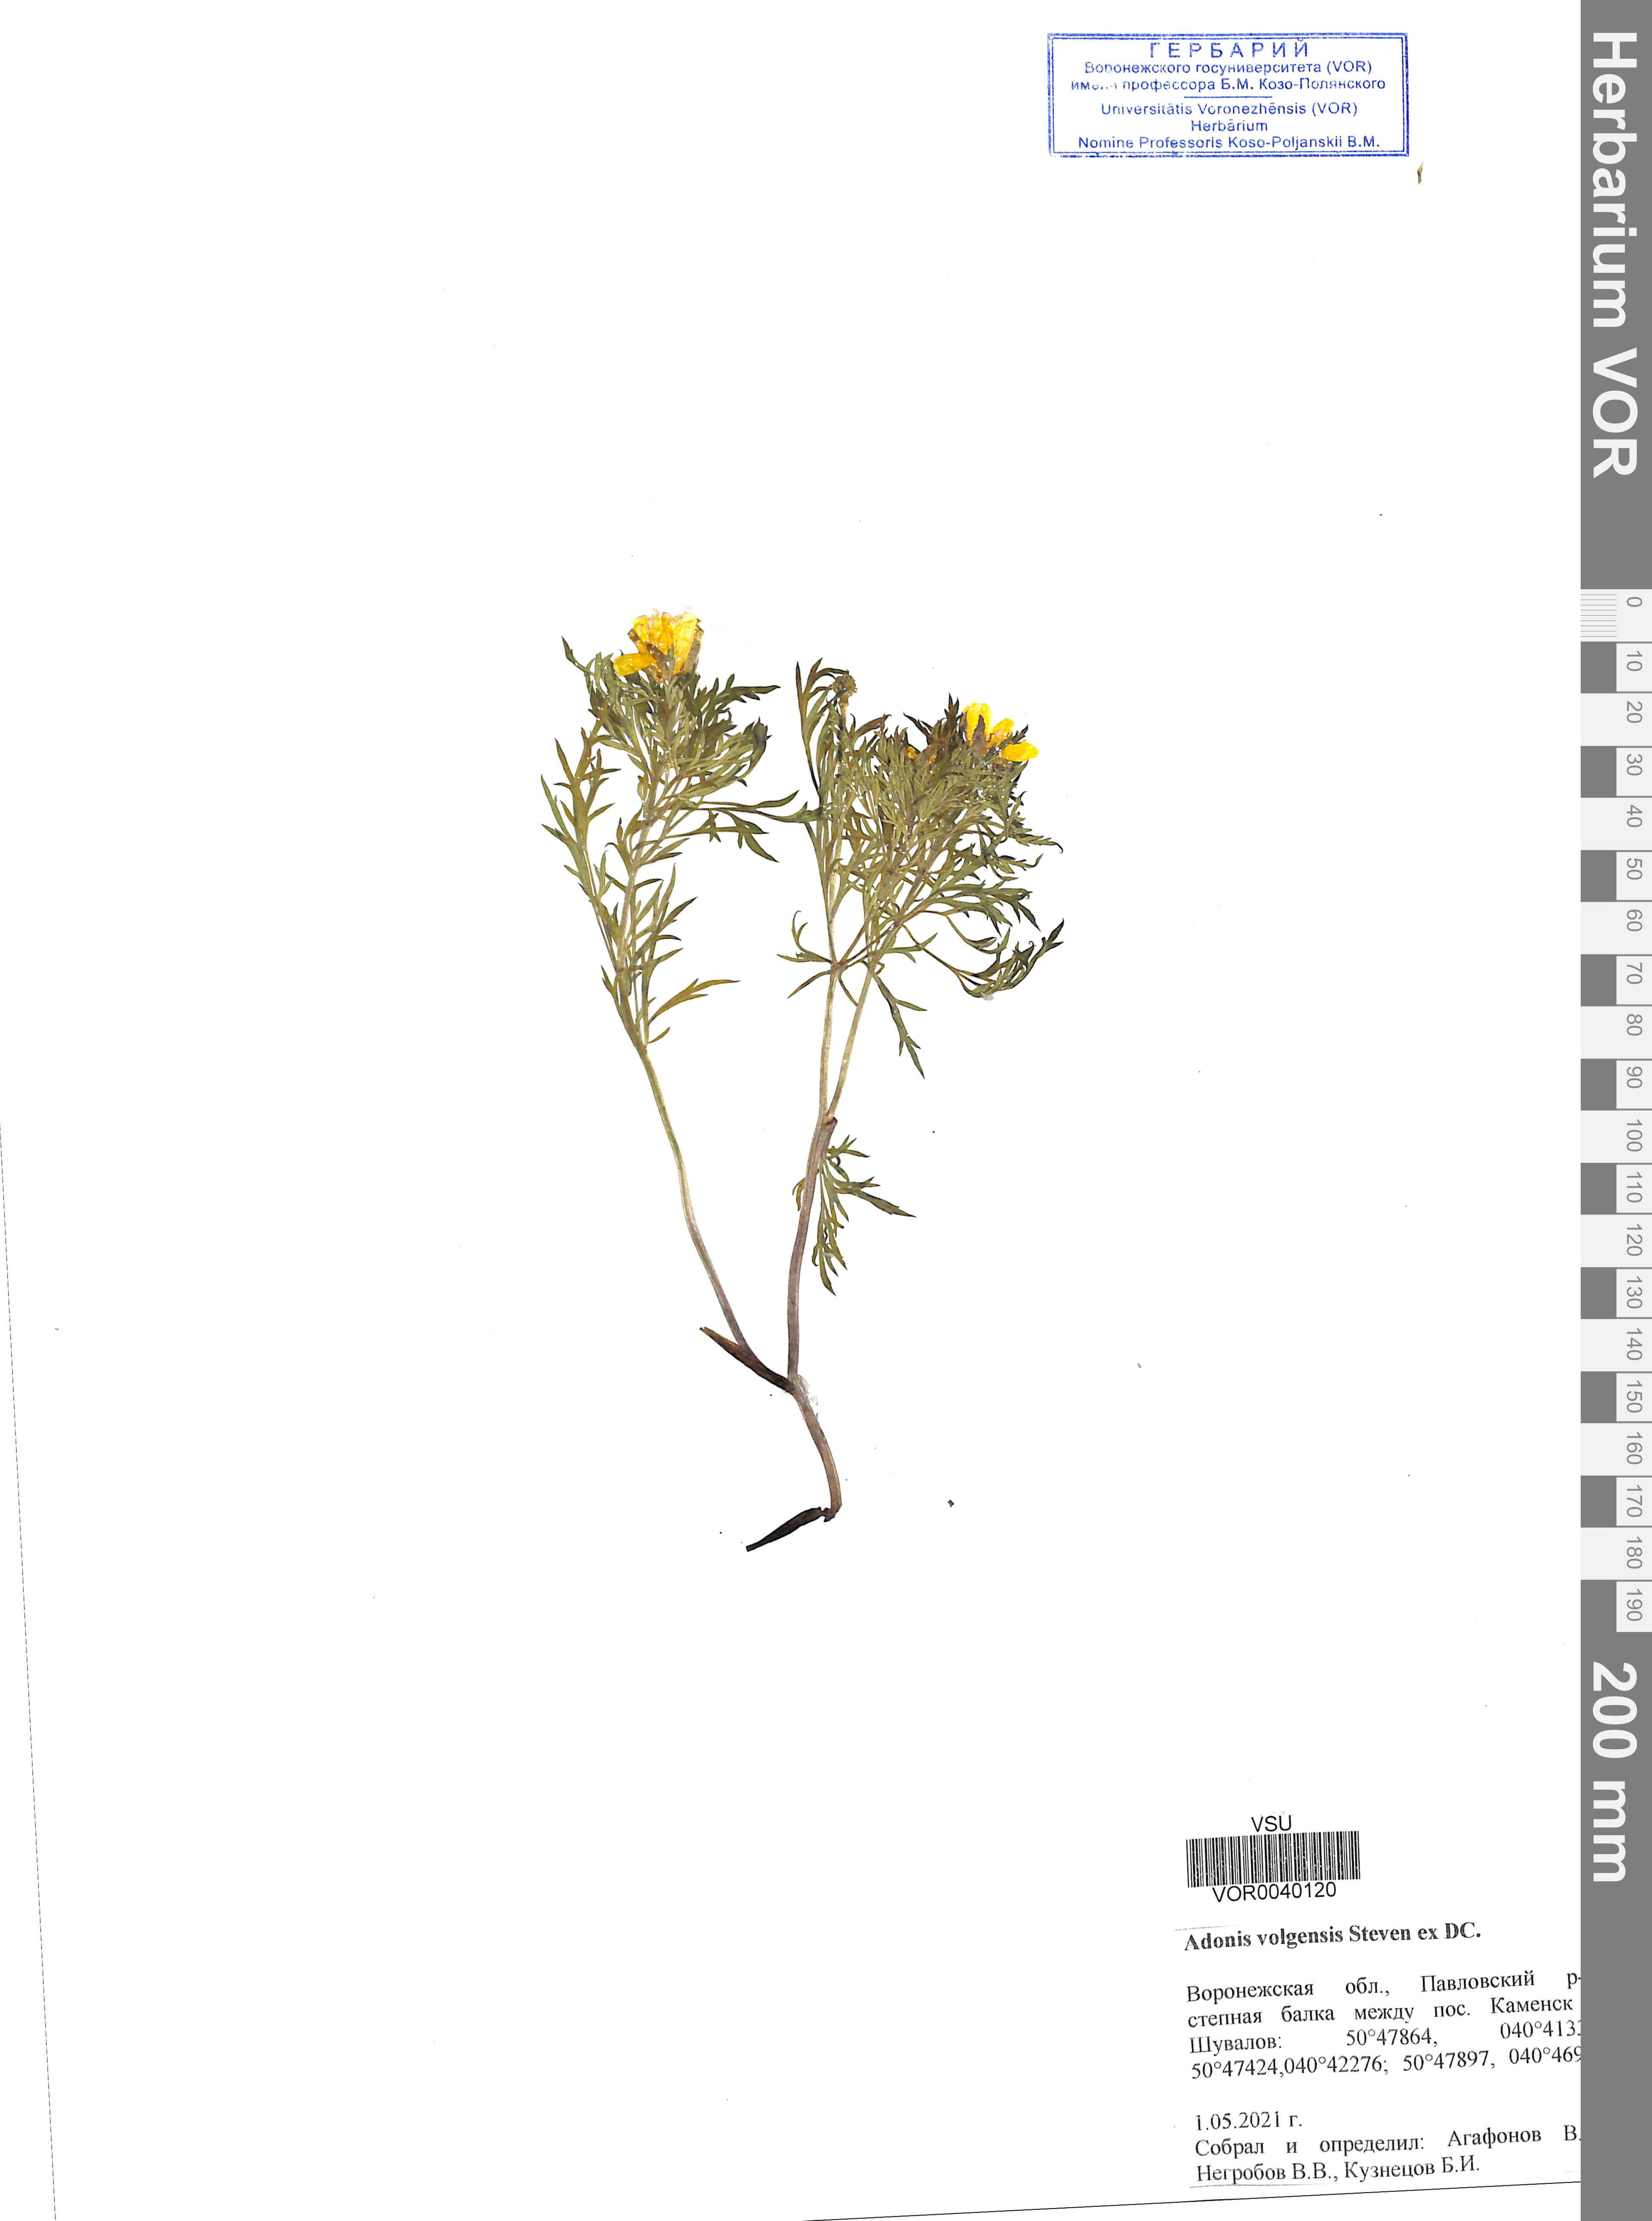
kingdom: Plantae
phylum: Tracheophyta
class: Magnoliopsida
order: Ranunculales
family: Ranunculaceae
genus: Adonis
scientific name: Adonis volgensis
